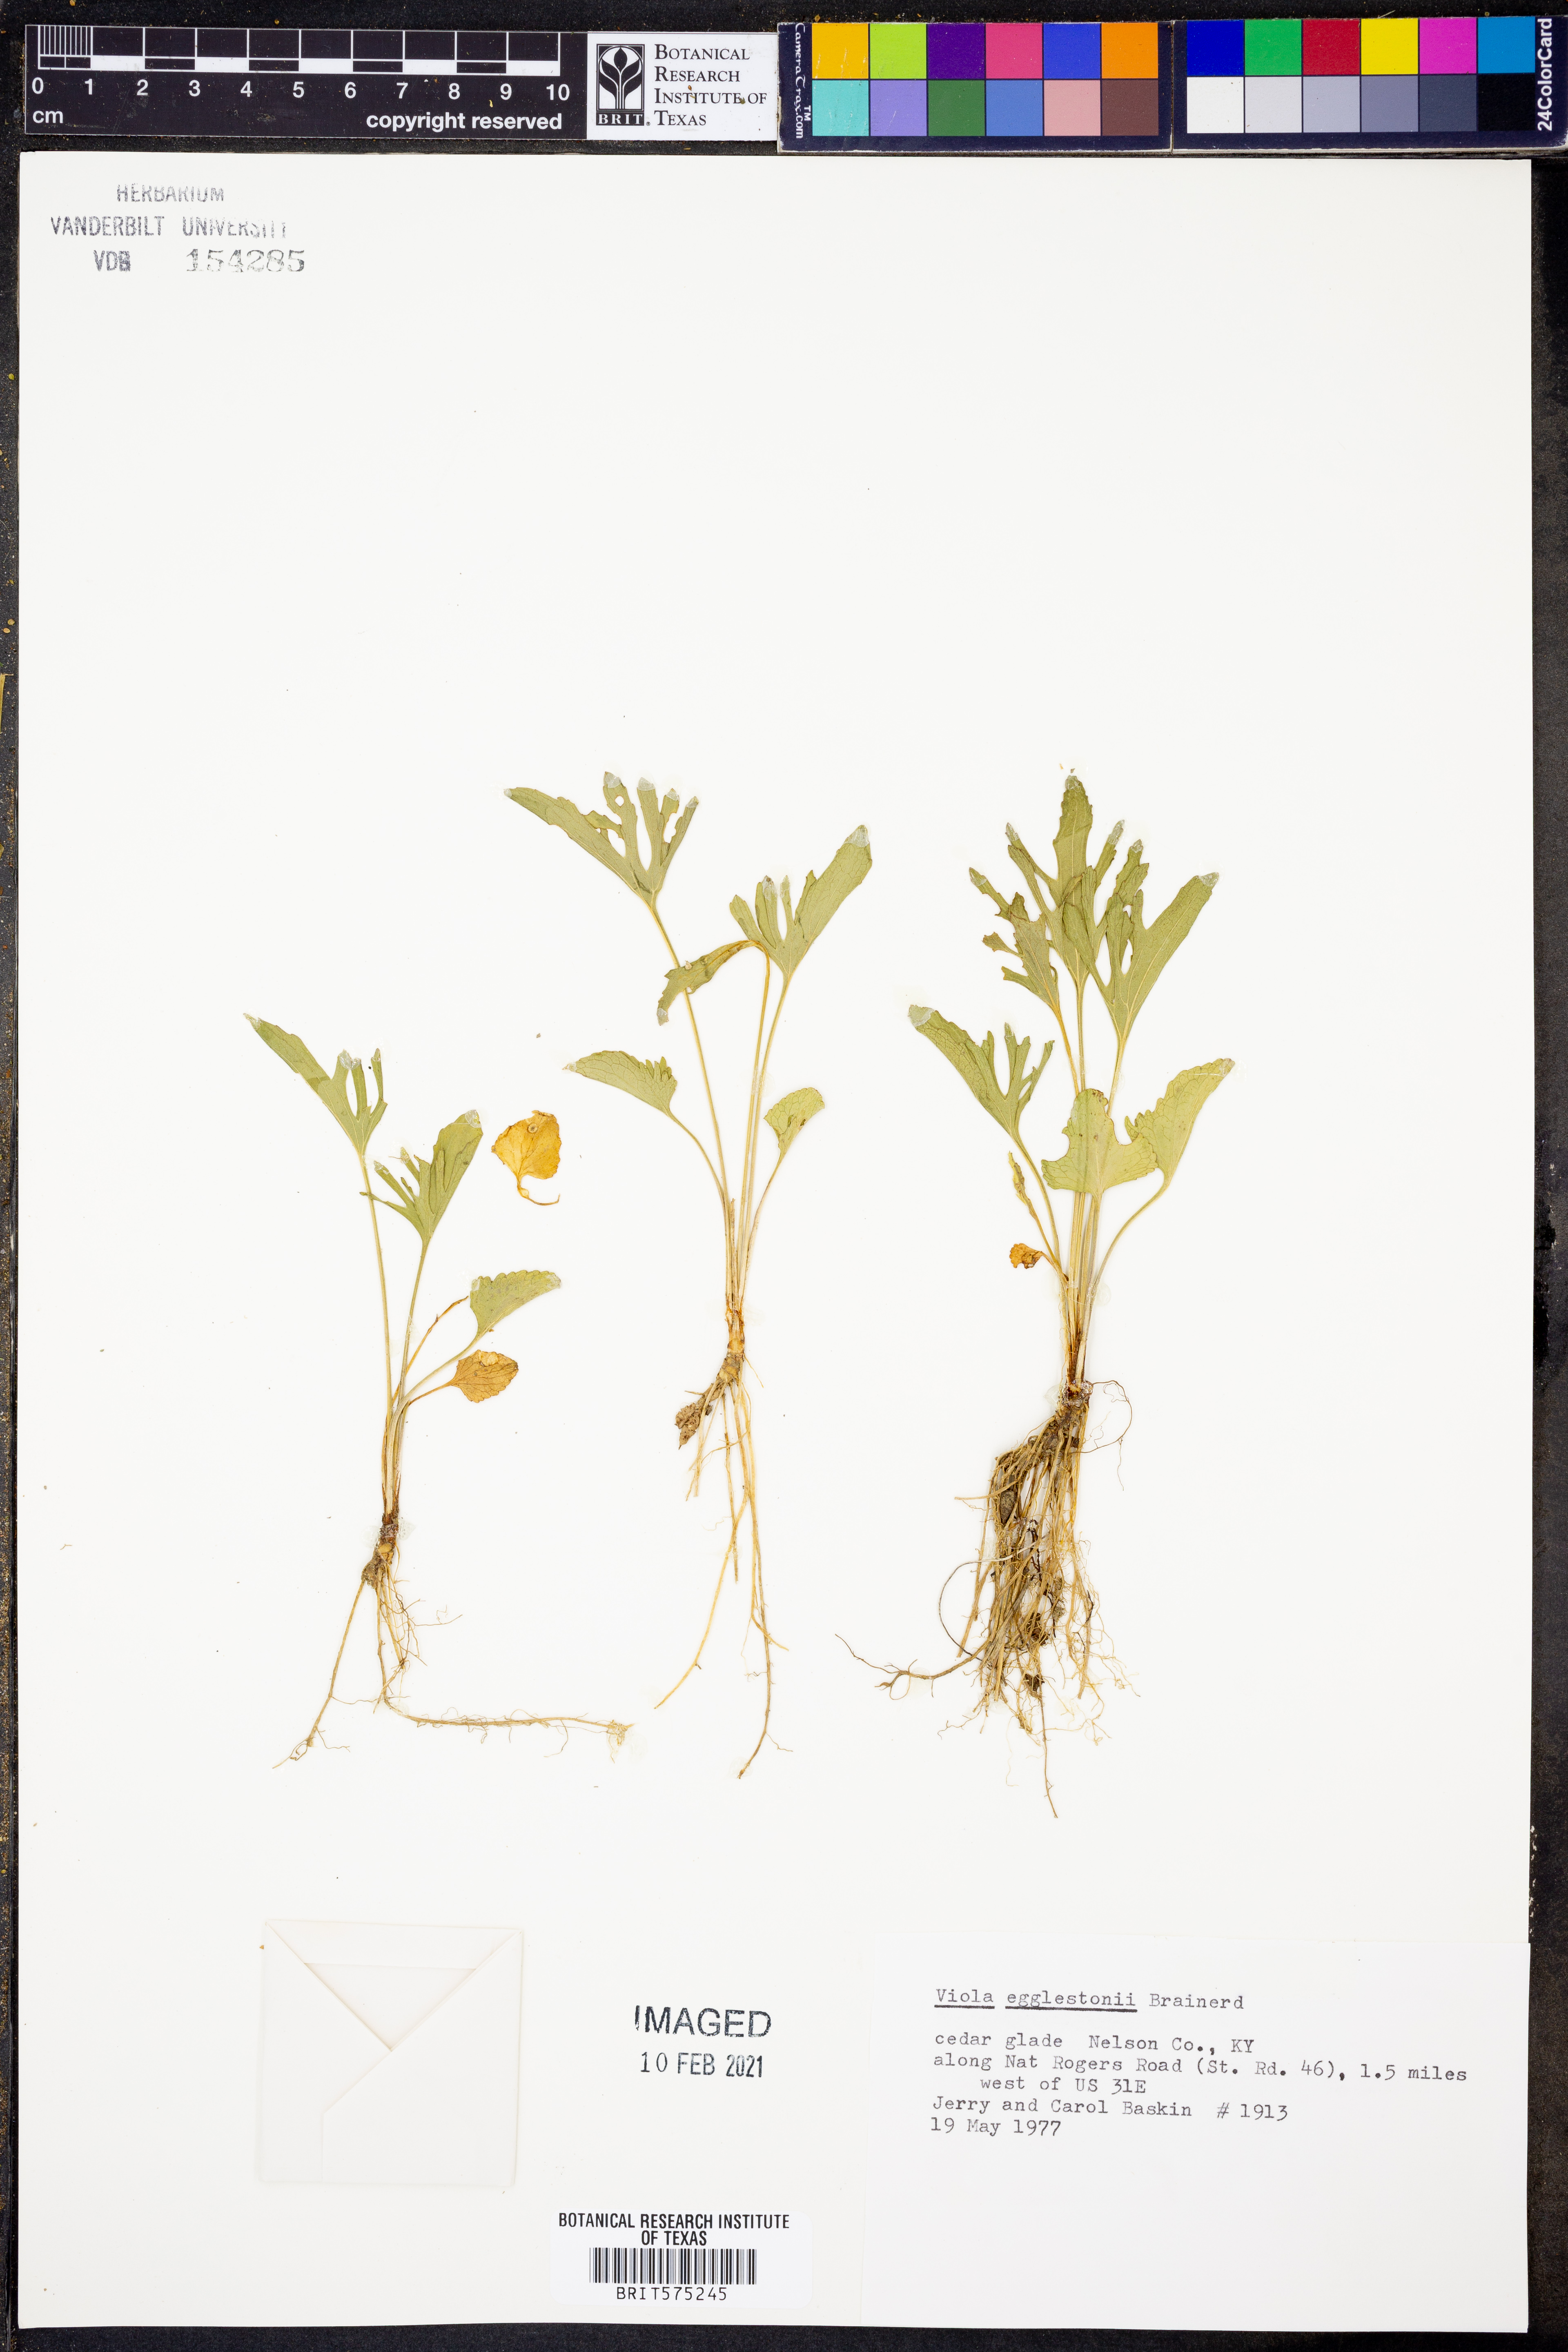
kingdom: Plantae
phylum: Tracheophyta
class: Magnoliopsida
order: Malpighiales
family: Violaceae
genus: Viola
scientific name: Viola egglestonii
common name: Glade violet
